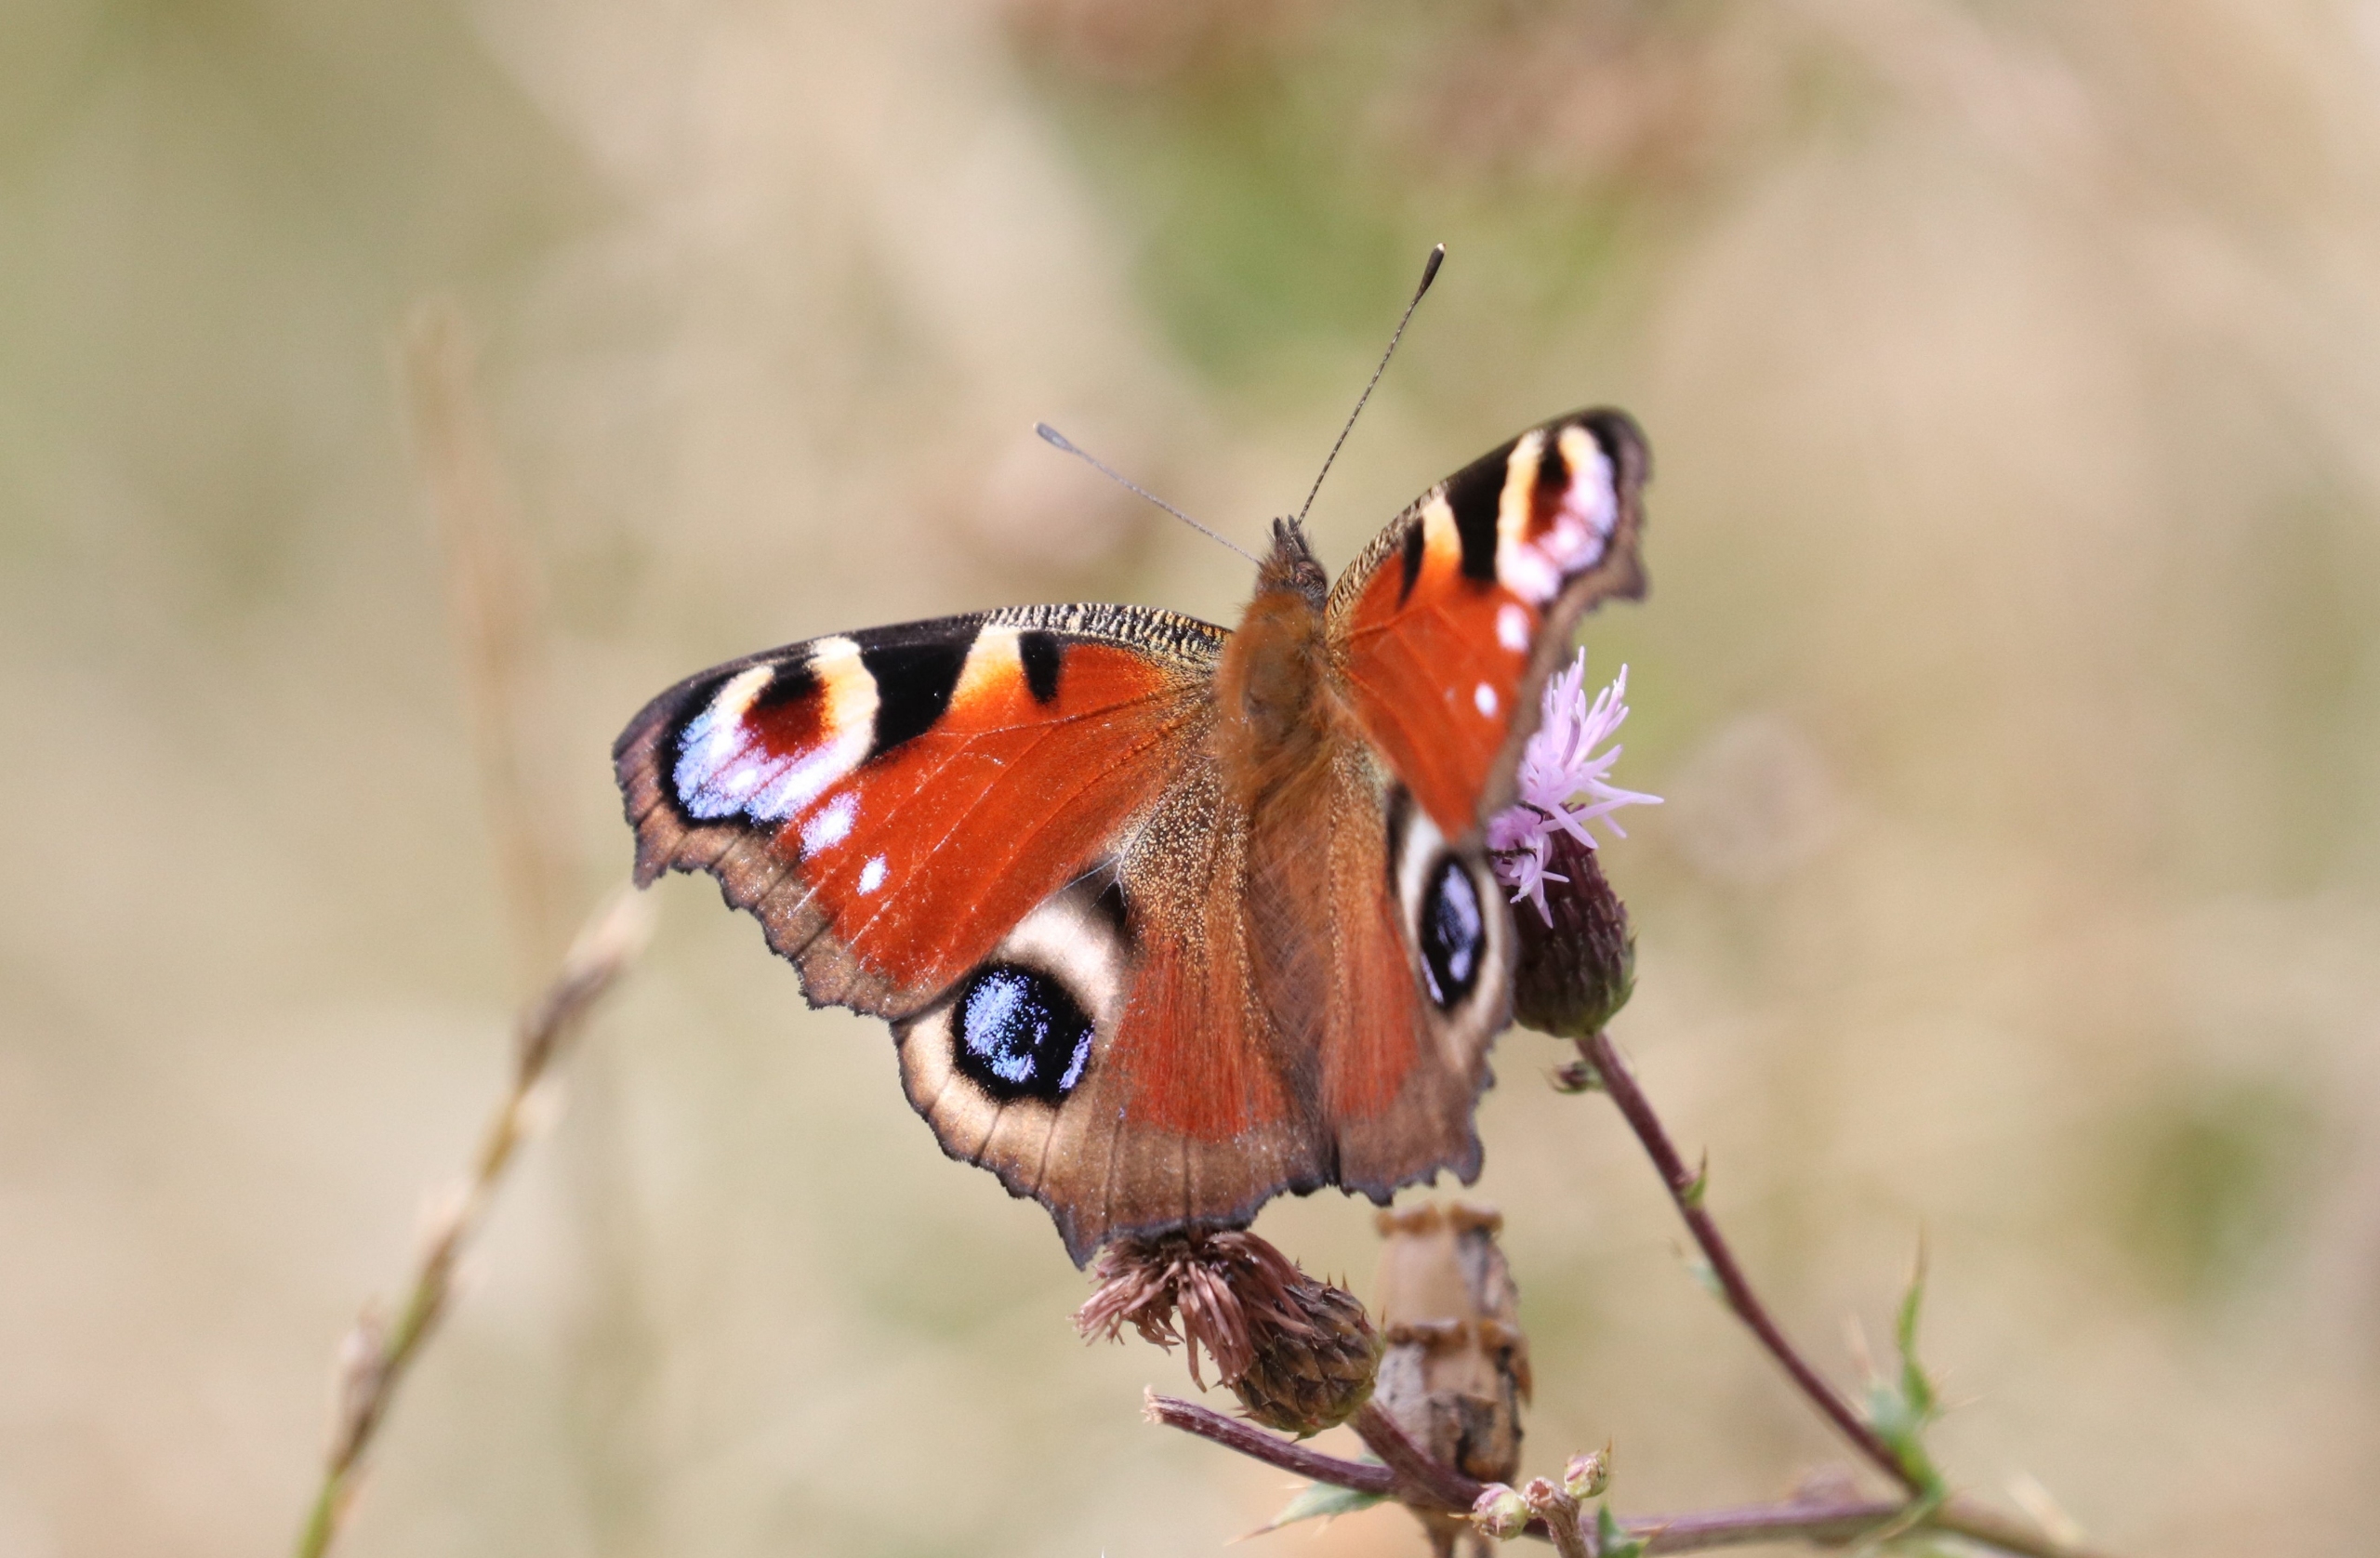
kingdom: Animalia
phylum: Arthropoda
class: Insecta
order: Lepidoptera
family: Nymphalidae
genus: Aglais
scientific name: Aglais io
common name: Dagpåfugleøje
